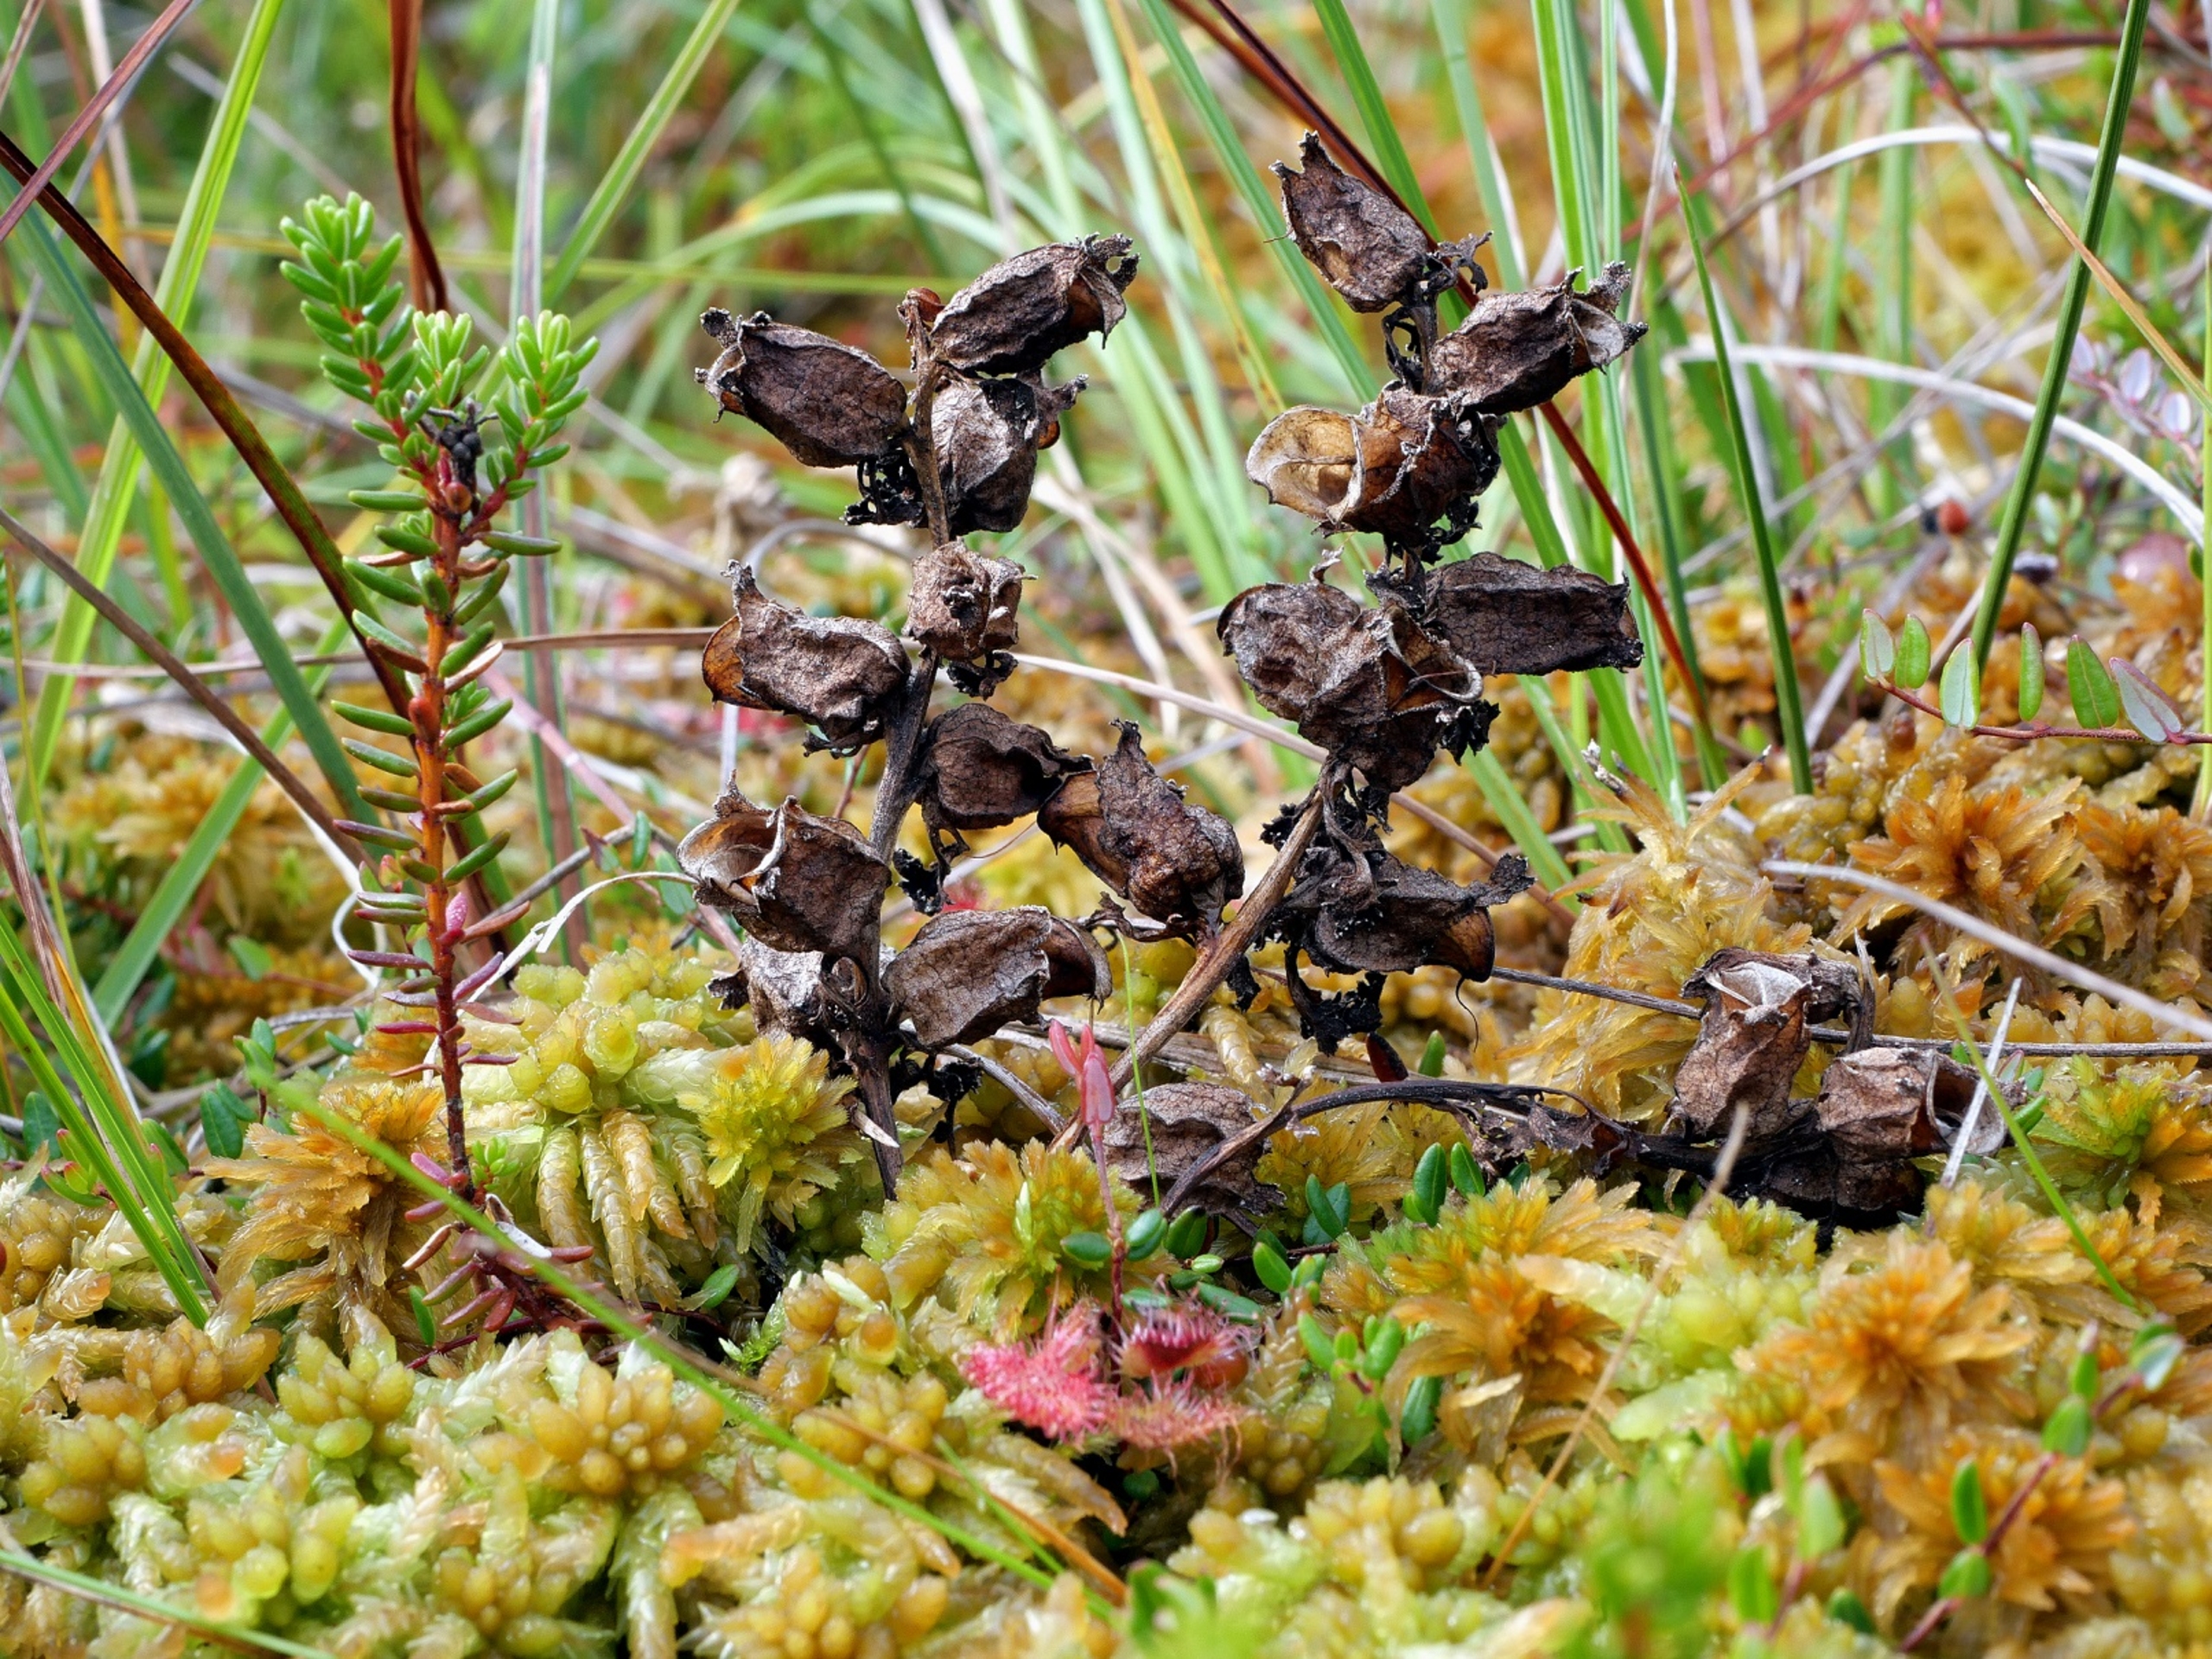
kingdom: Plantae
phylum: Tracheophyta
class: Magnoliopsida
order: Lamiales
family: Orobanchaceae
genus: Pedicularis
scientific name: Pedicularis sylvatica
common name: Mose-troldurt
